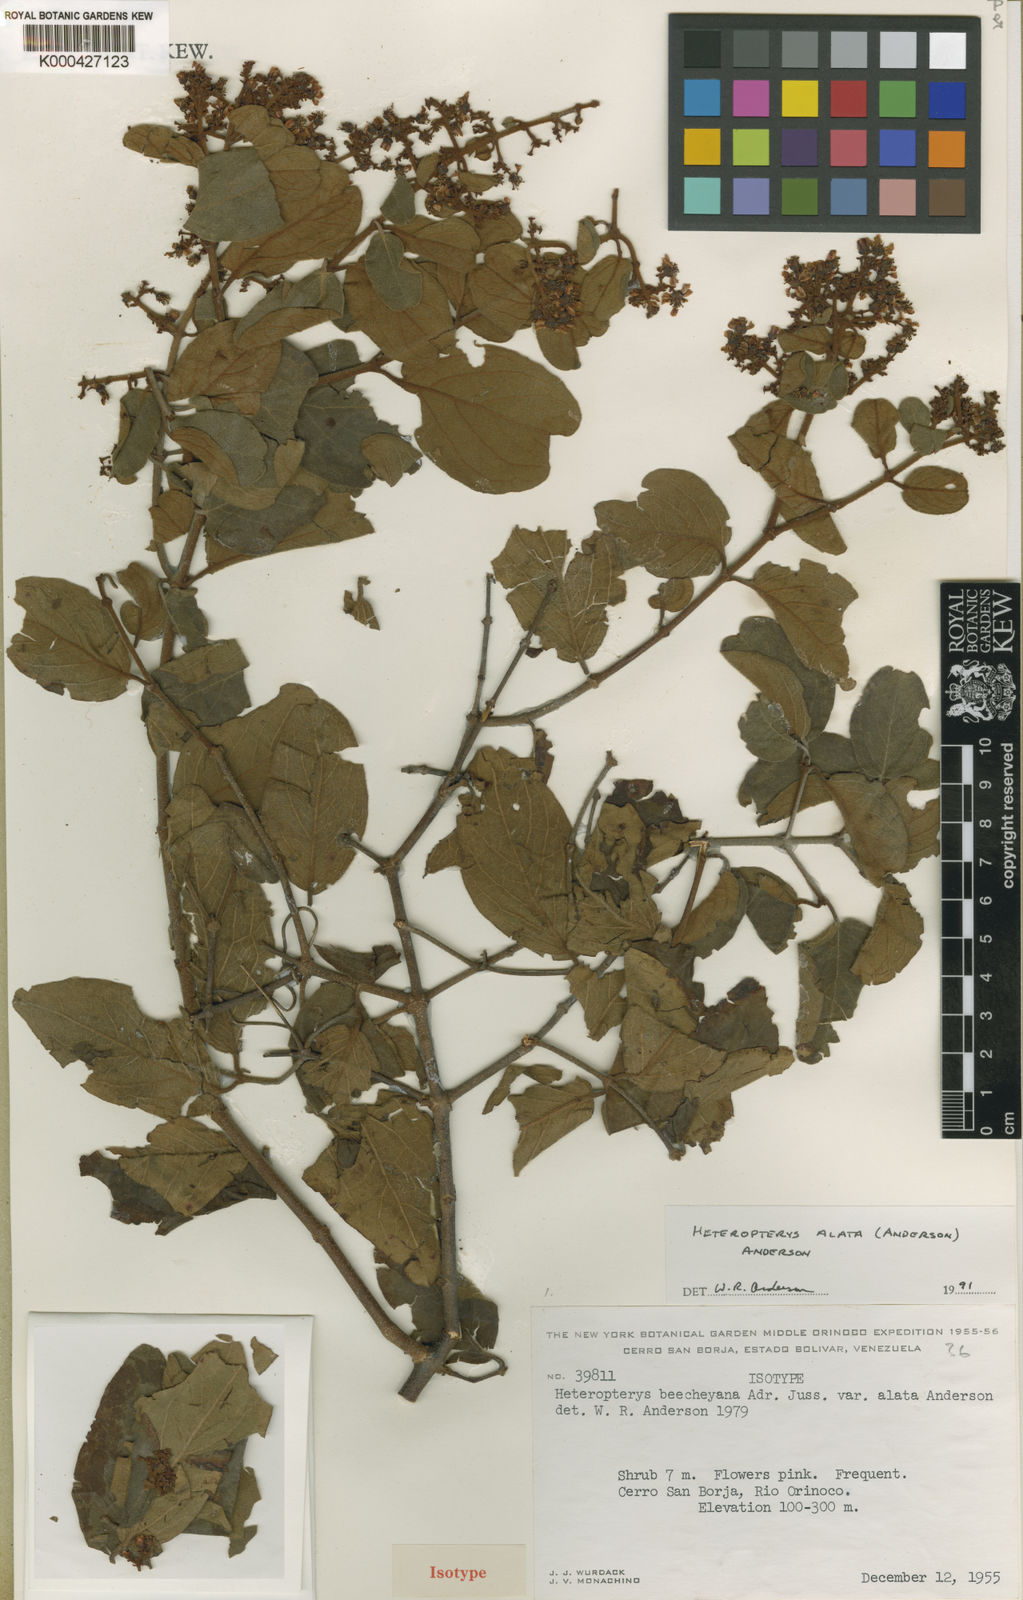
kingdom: Plantae
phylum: Tracheophyta
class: Magnoliopsida
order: Malpighiales
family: Malpighiaceae
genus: Heteropterys
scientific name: Heteropterys alata
